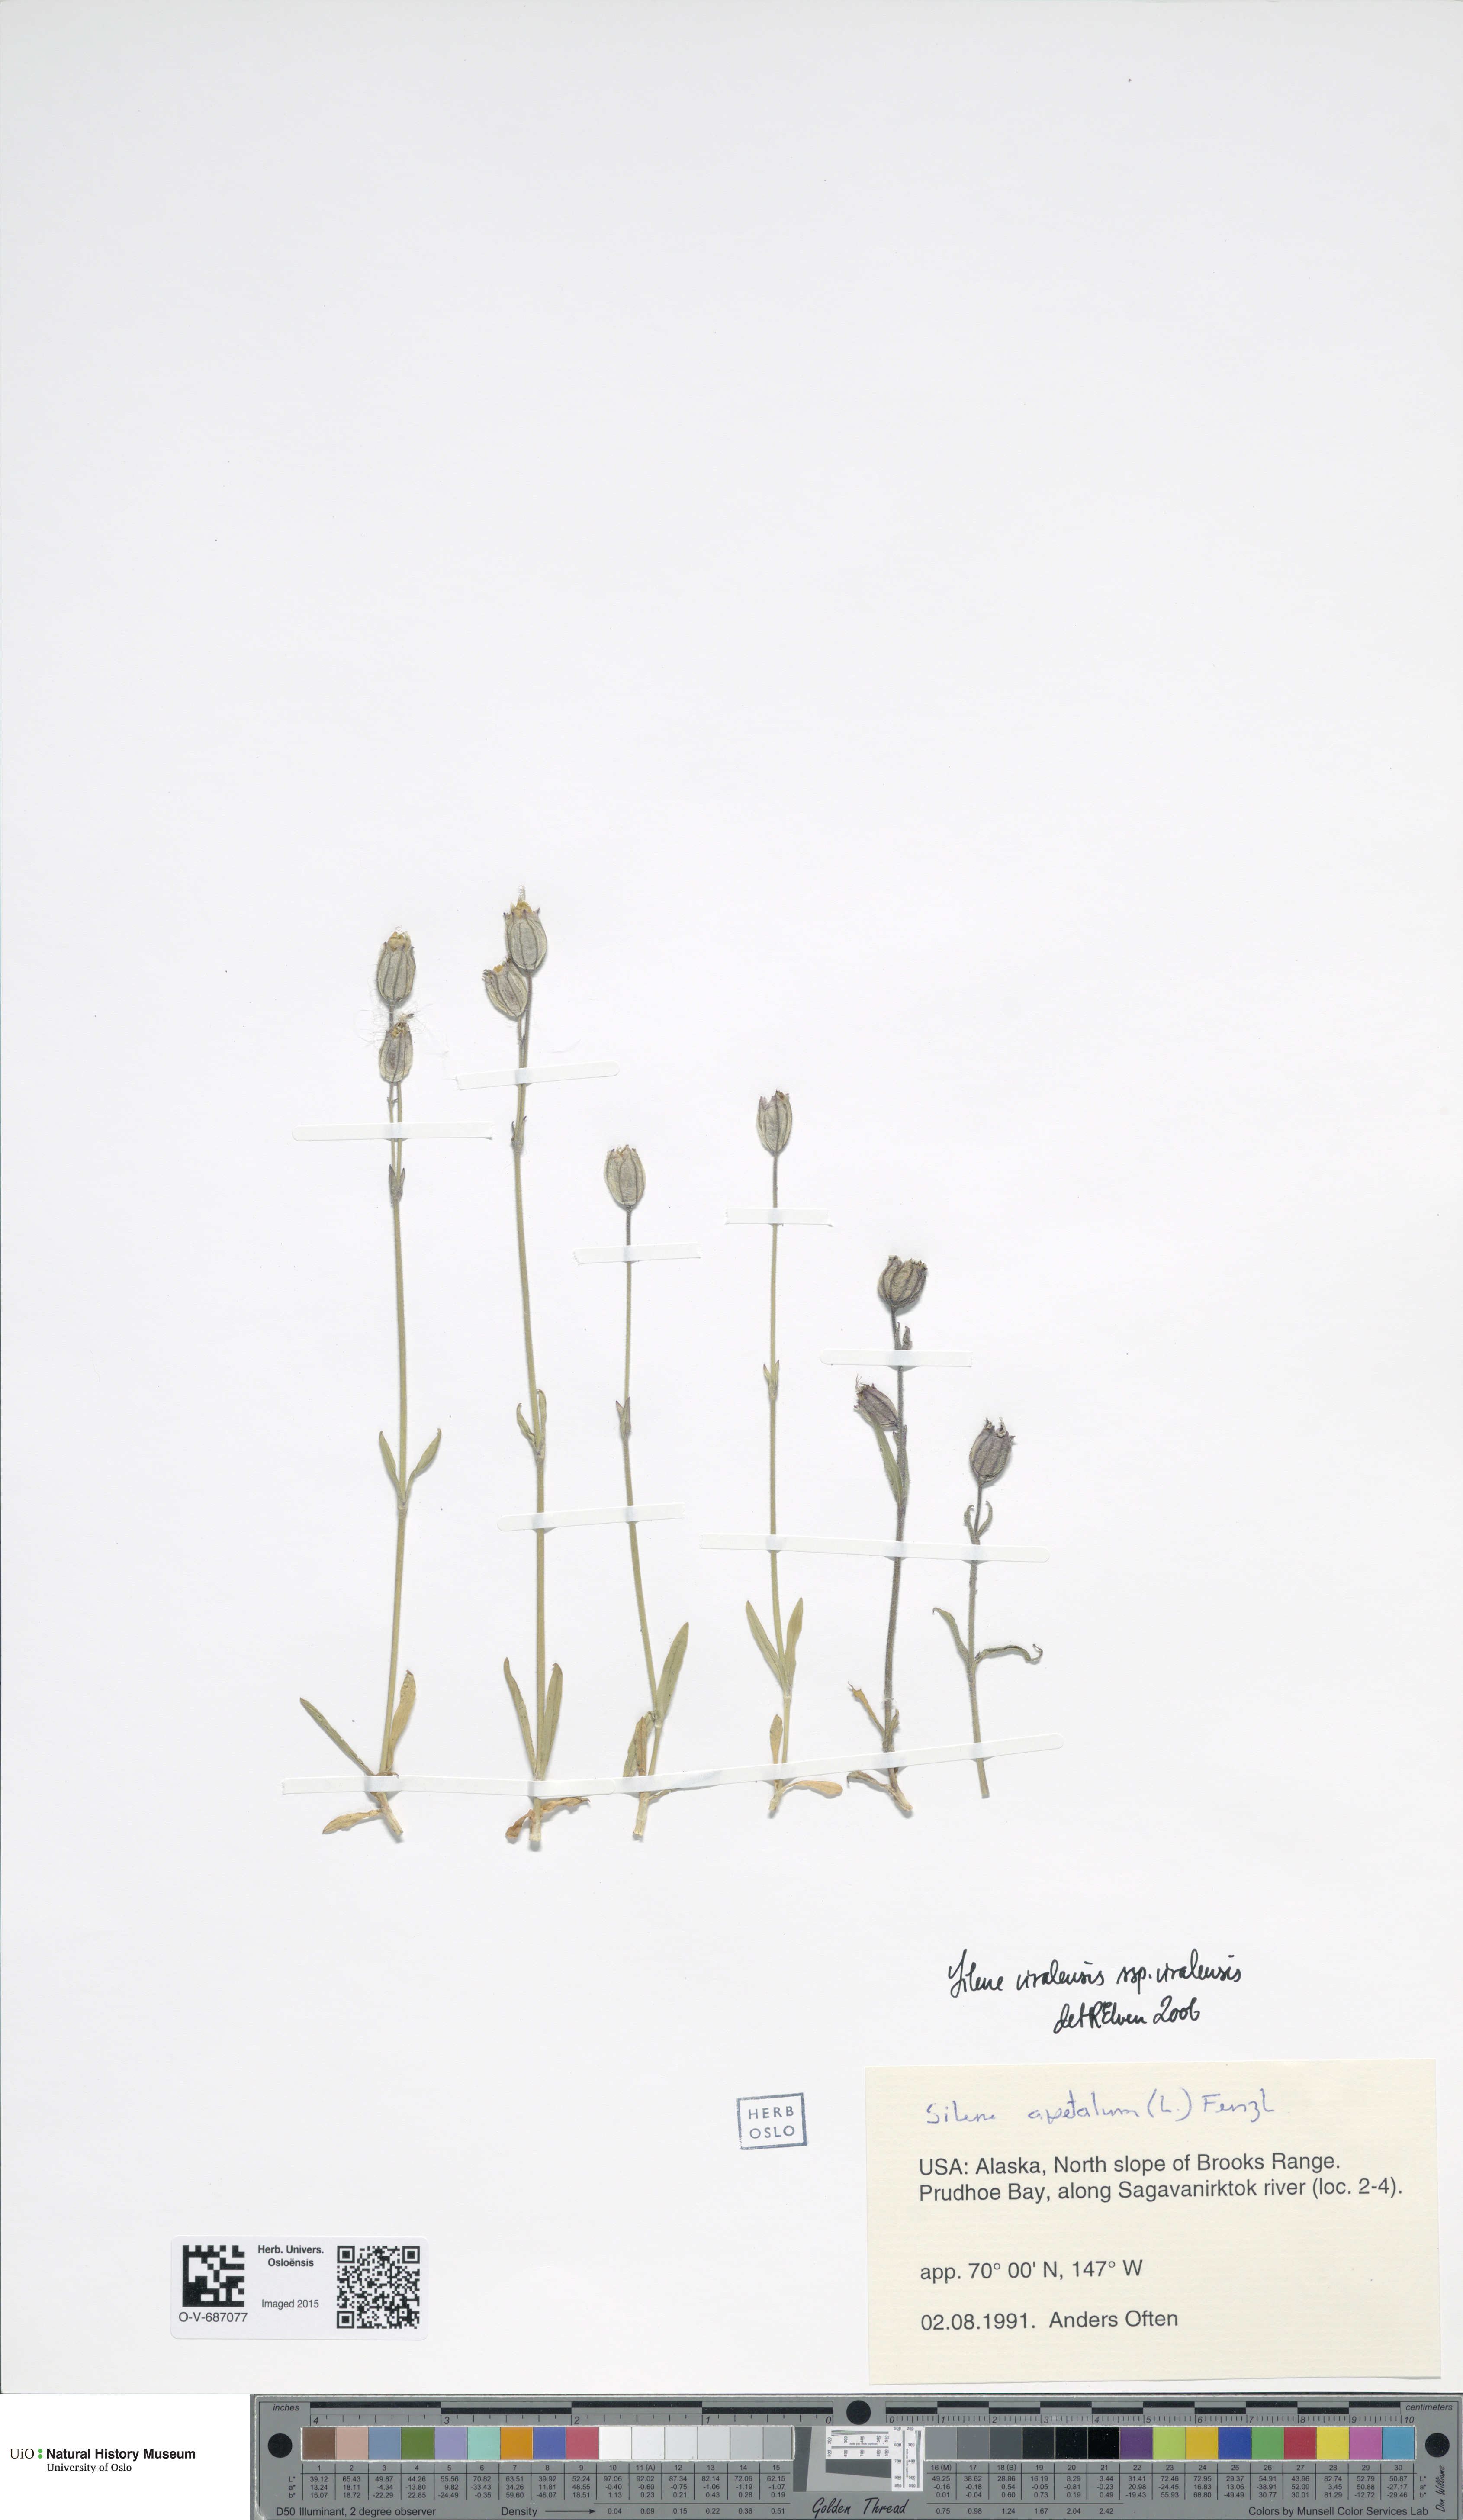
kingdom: Plantae
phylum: Tracheophyta
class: Magnoliopsida
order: Caryophyllales
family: Caryophyllaceae
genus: Silene
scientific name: Silene uralensis
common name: Nodding campion
